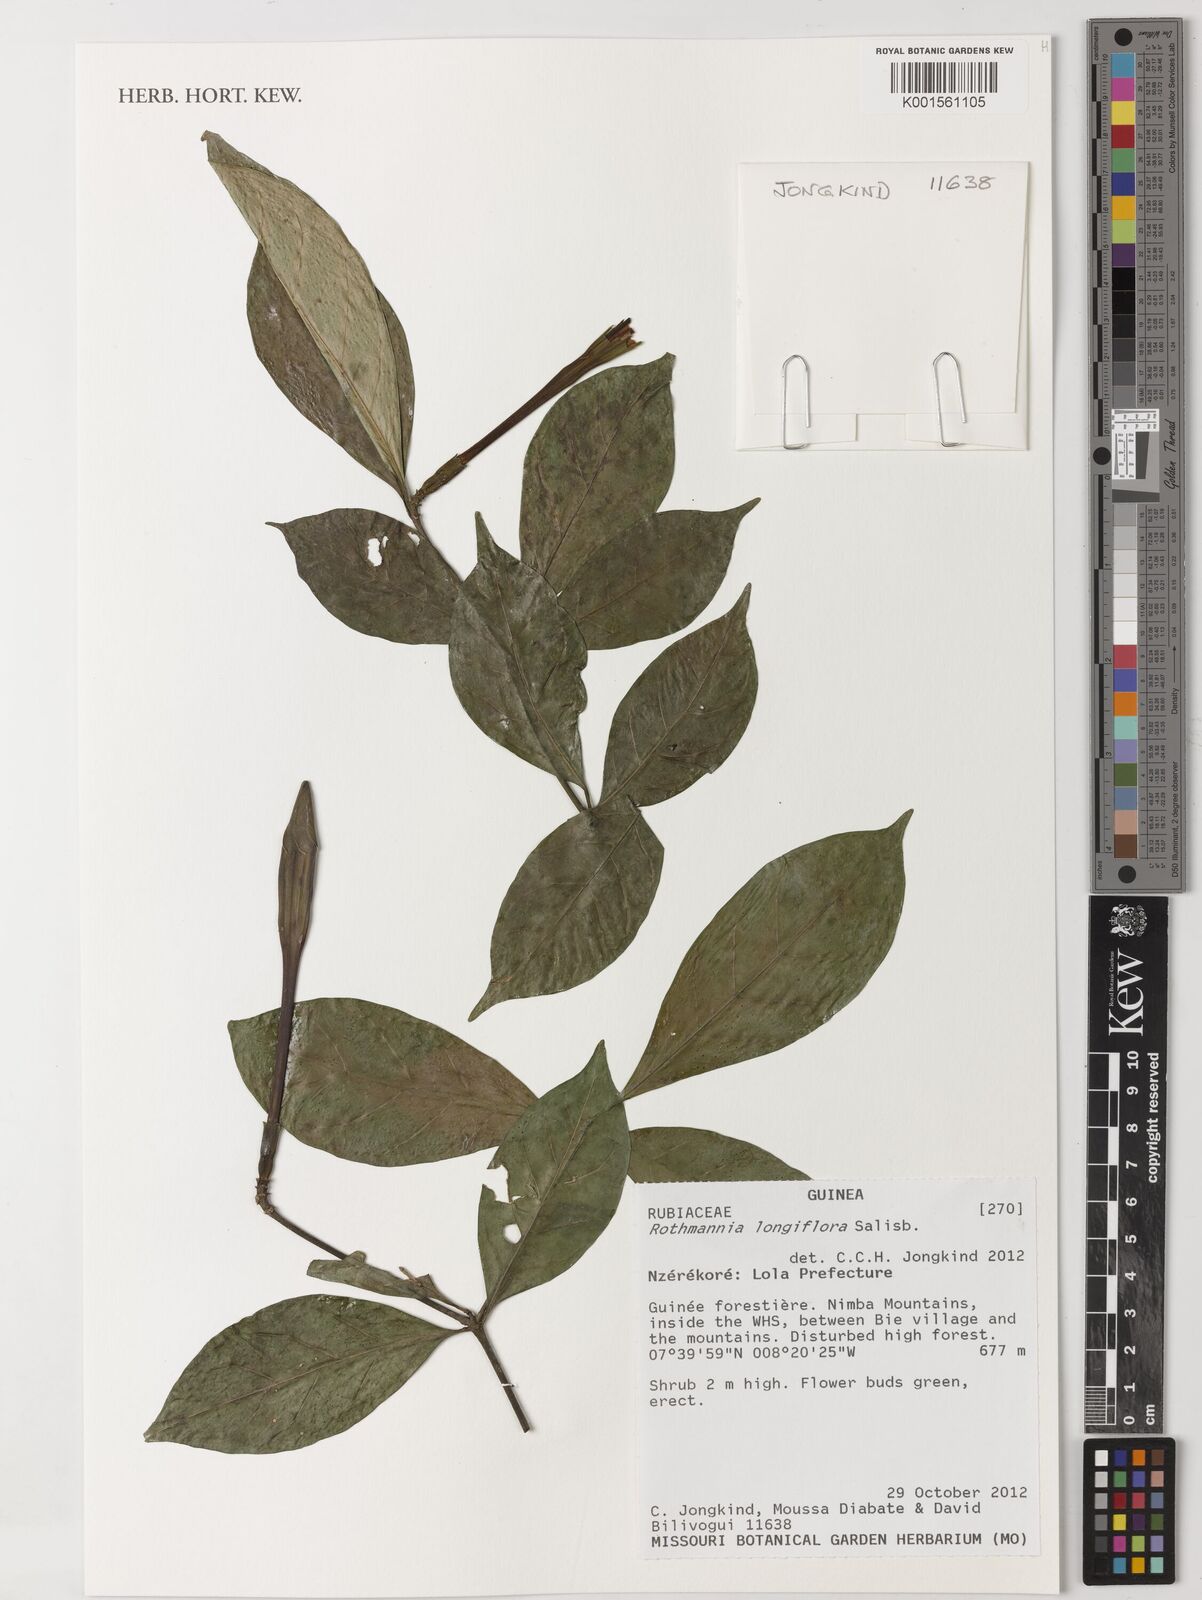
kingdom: Plantae
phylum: Tracheophyta
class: Magnoliopsida
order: Gentianales
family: Rubiaceae
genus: Rothmannia
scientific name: Rothmannia longiflora
